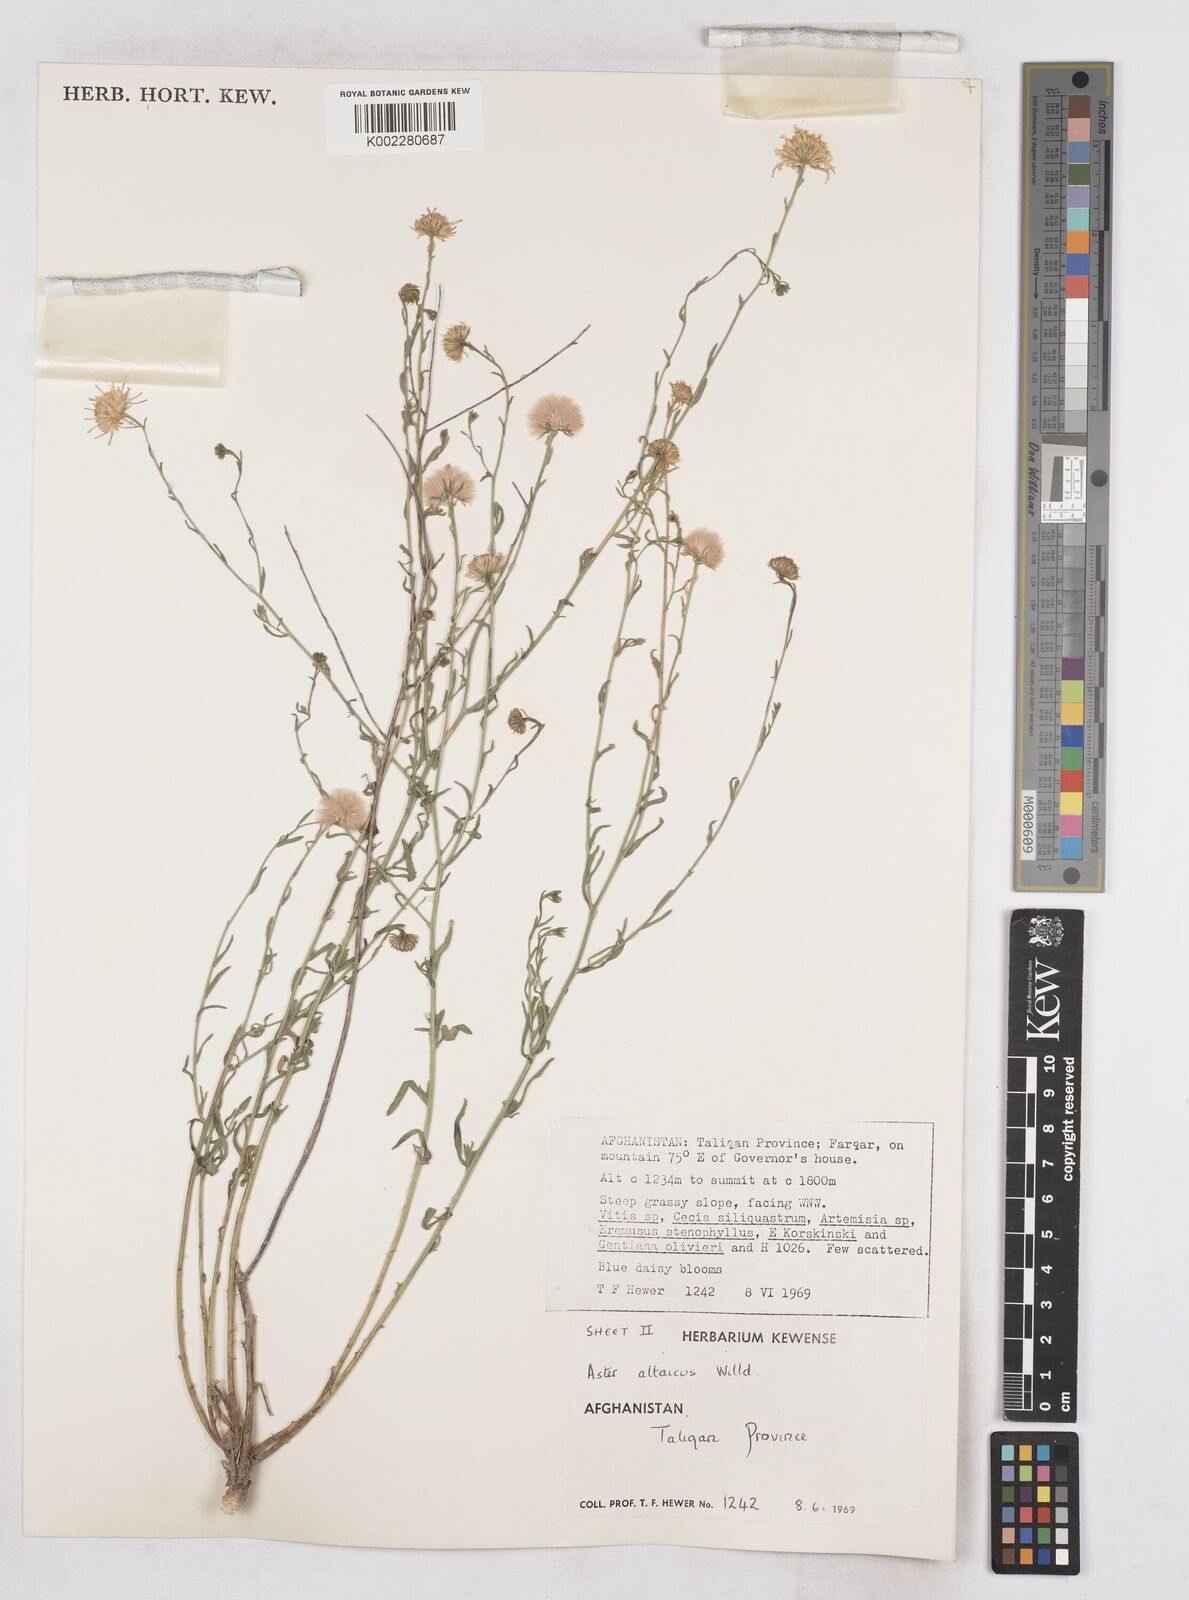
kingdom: Plantae
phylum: Tracheophyta
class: Magnoliopsida
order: Asterales
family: Asteraceae
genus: Heteropappus
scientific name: Heteropappus altaicus
